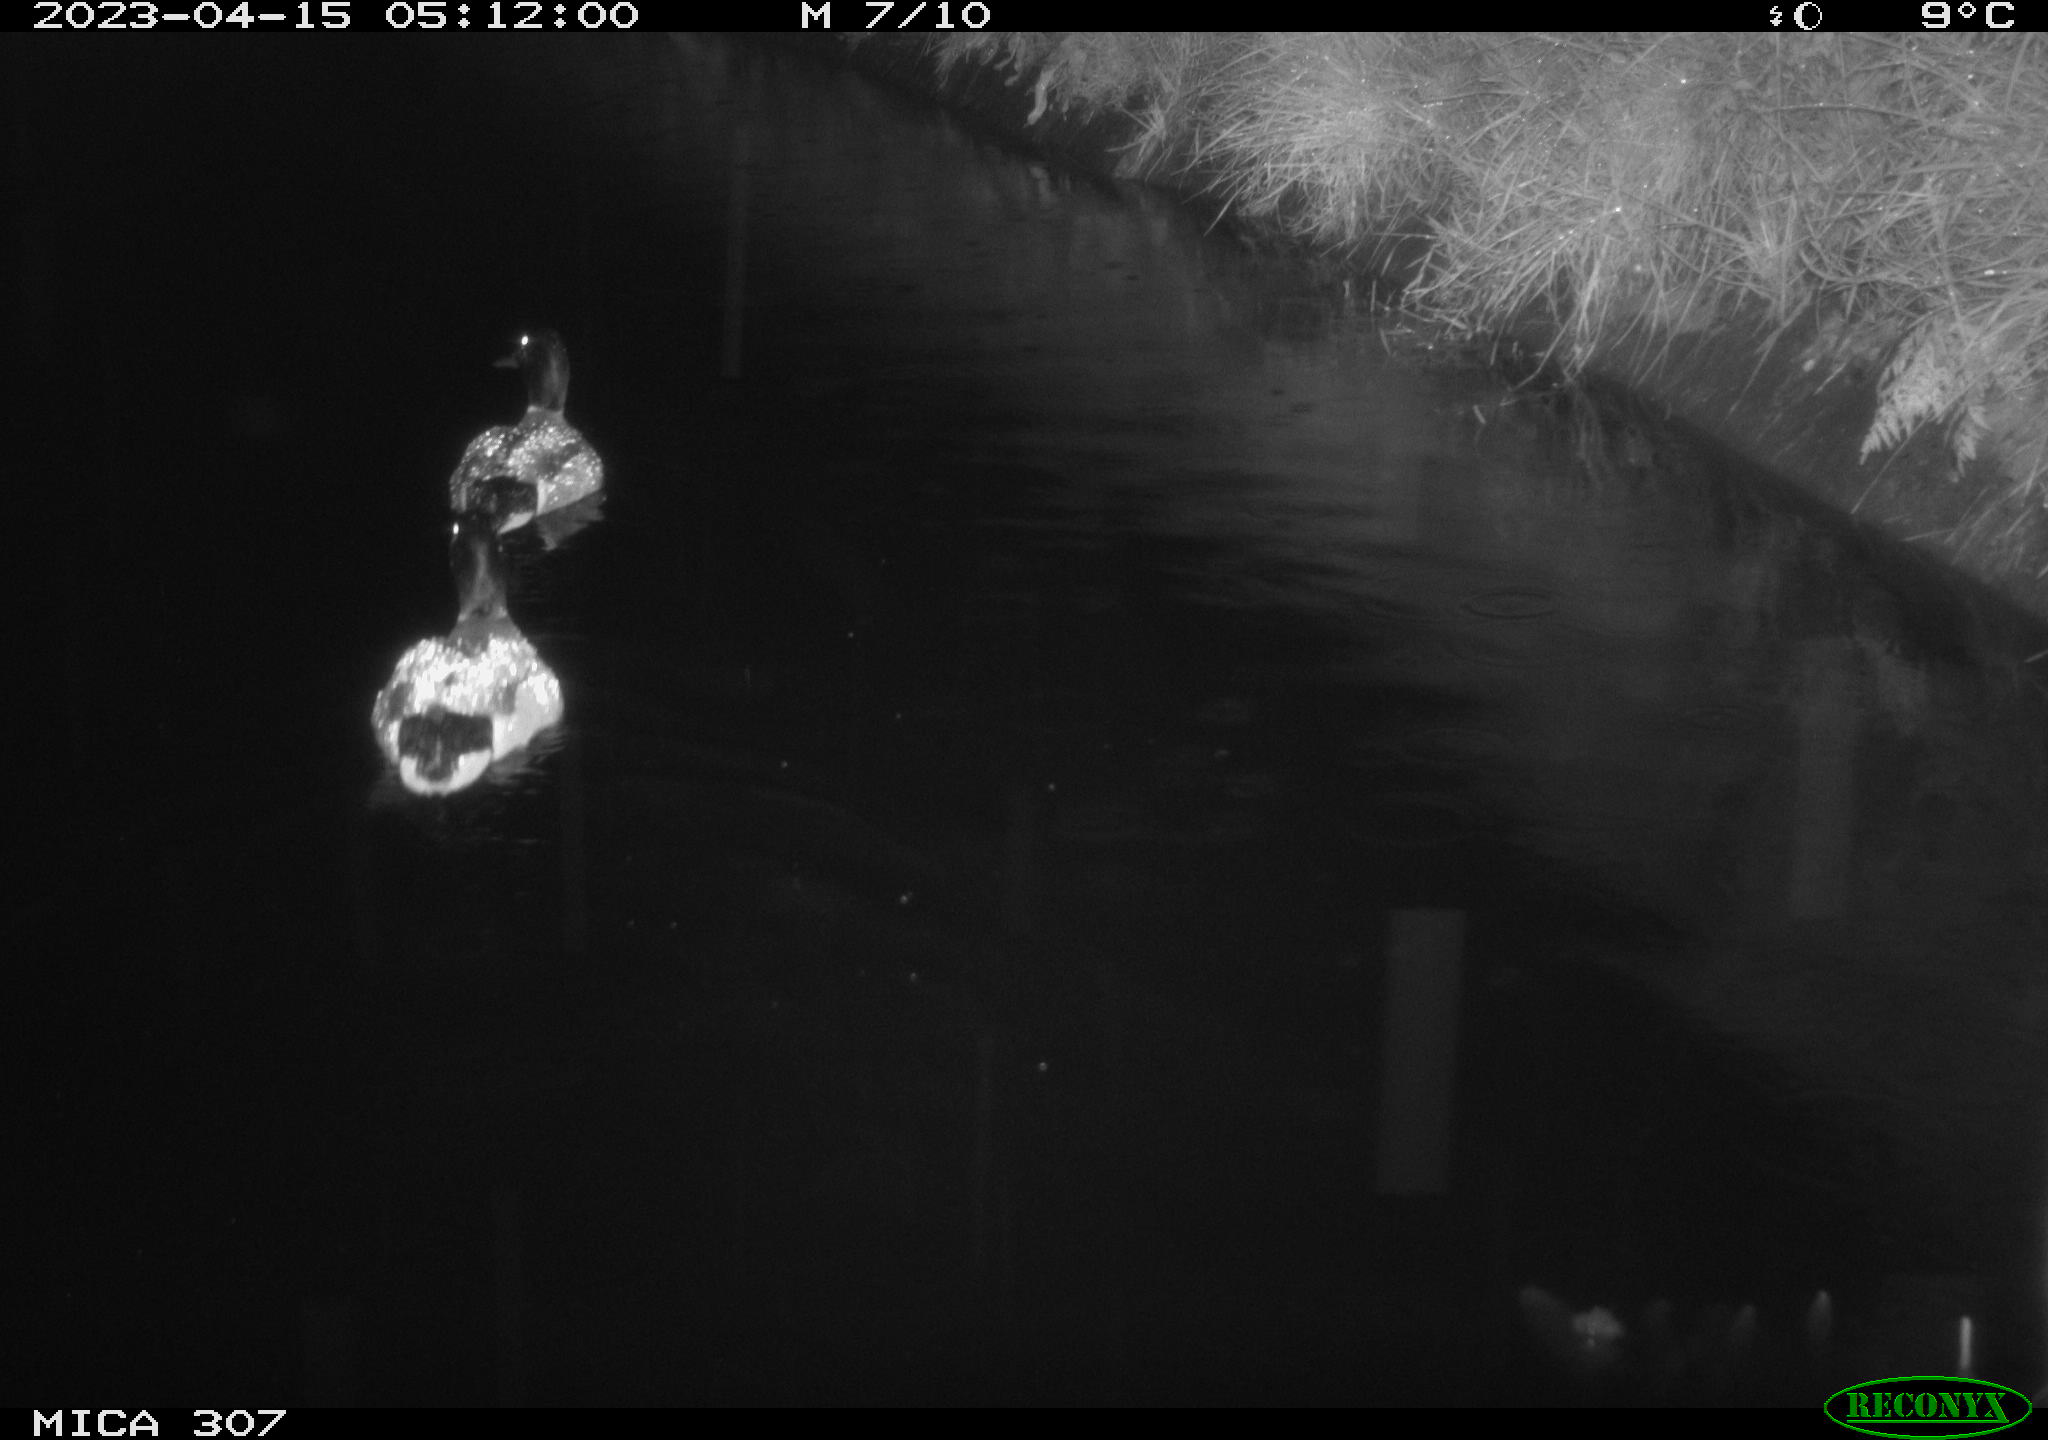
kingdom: Animalia
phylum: Chordata
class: Aves
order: Anseriformes
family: Anatidae
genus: Anas
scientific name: Anas
